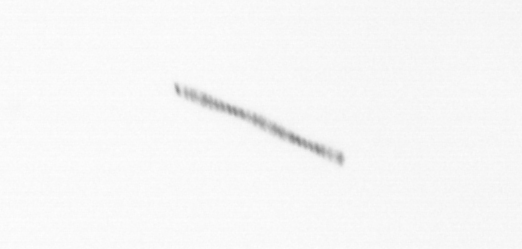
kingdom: Chromista
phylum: Ochrophyta
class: Bacillariophyceae
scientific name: Bacillariophyceae
